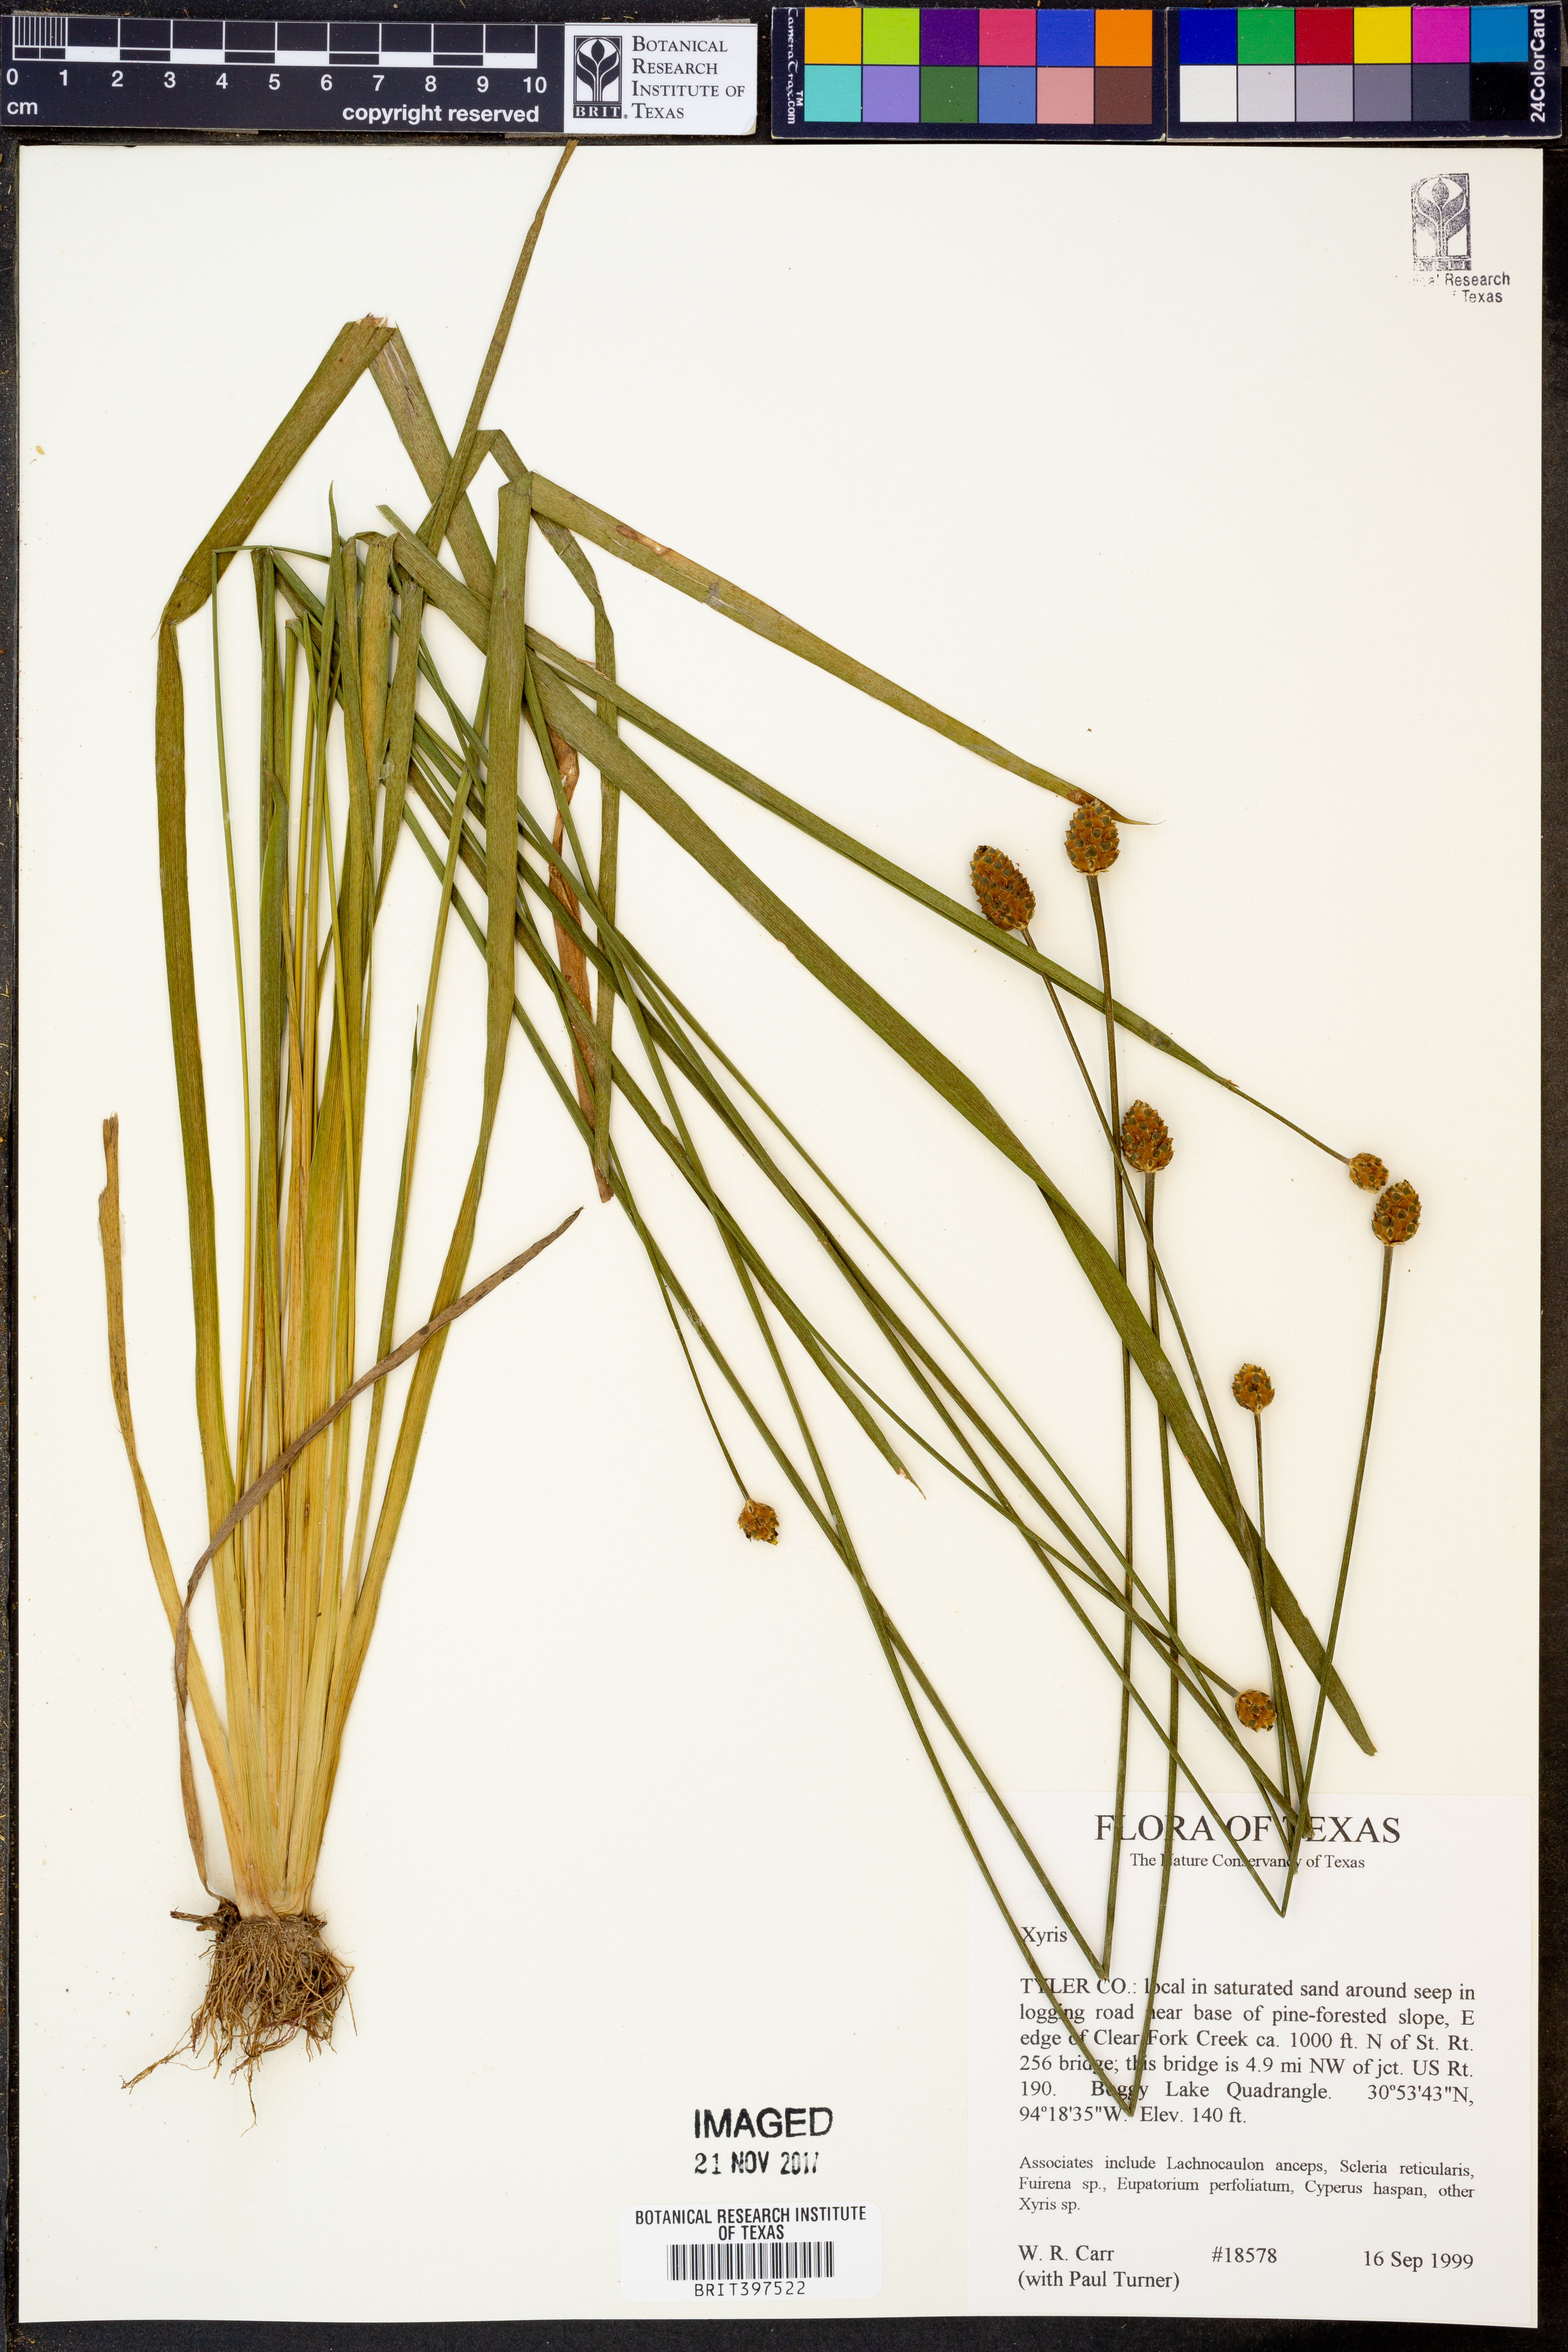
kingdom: Plantae
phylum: Tracheophyta
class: Liliopsida
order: Poales
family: Xyridaceae
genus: Xyris
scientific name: Xyris
